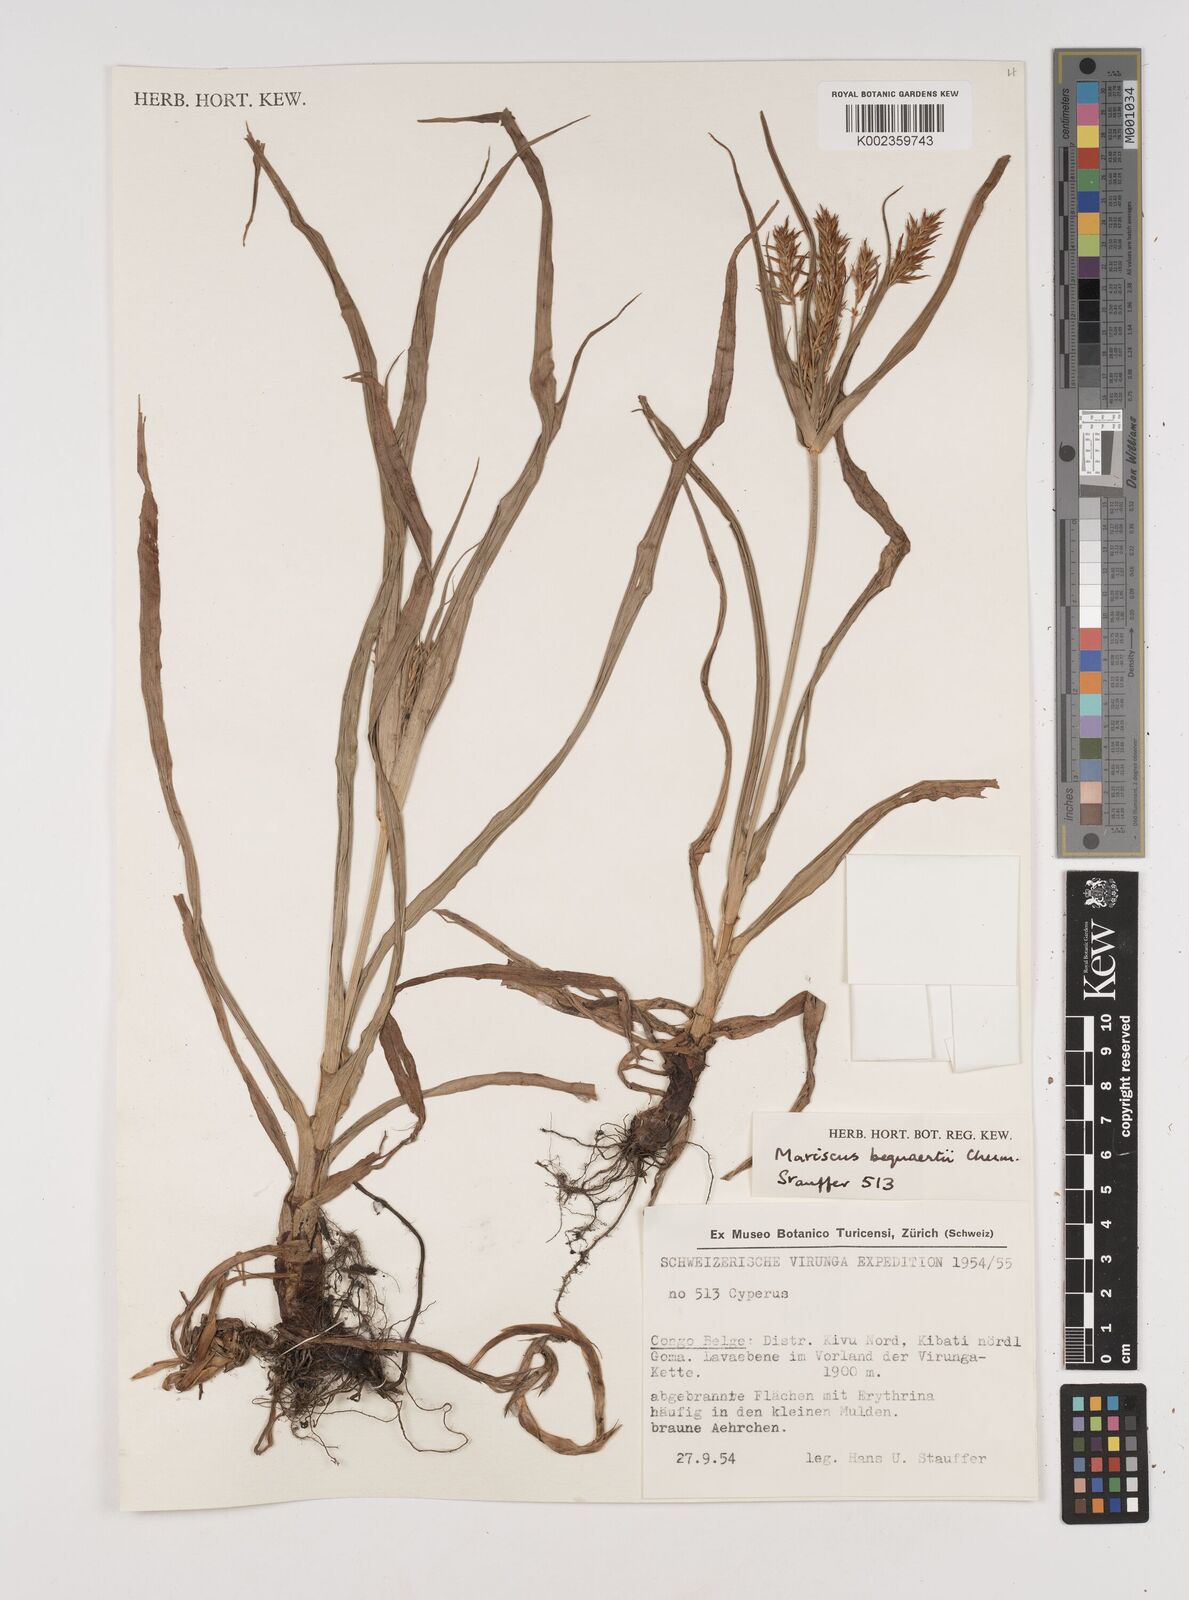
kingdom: Plantae
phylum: Tracheophyta
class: Liliopsida
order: Poales
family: Cyperaceae
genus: Cyperus
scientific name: Cyperus ferrugineoviridis
